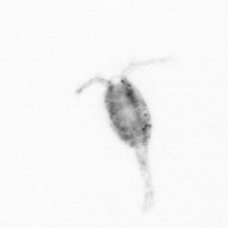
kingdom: Animalia
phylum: Arthropoda
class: Copepoda
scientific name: Copepoda
